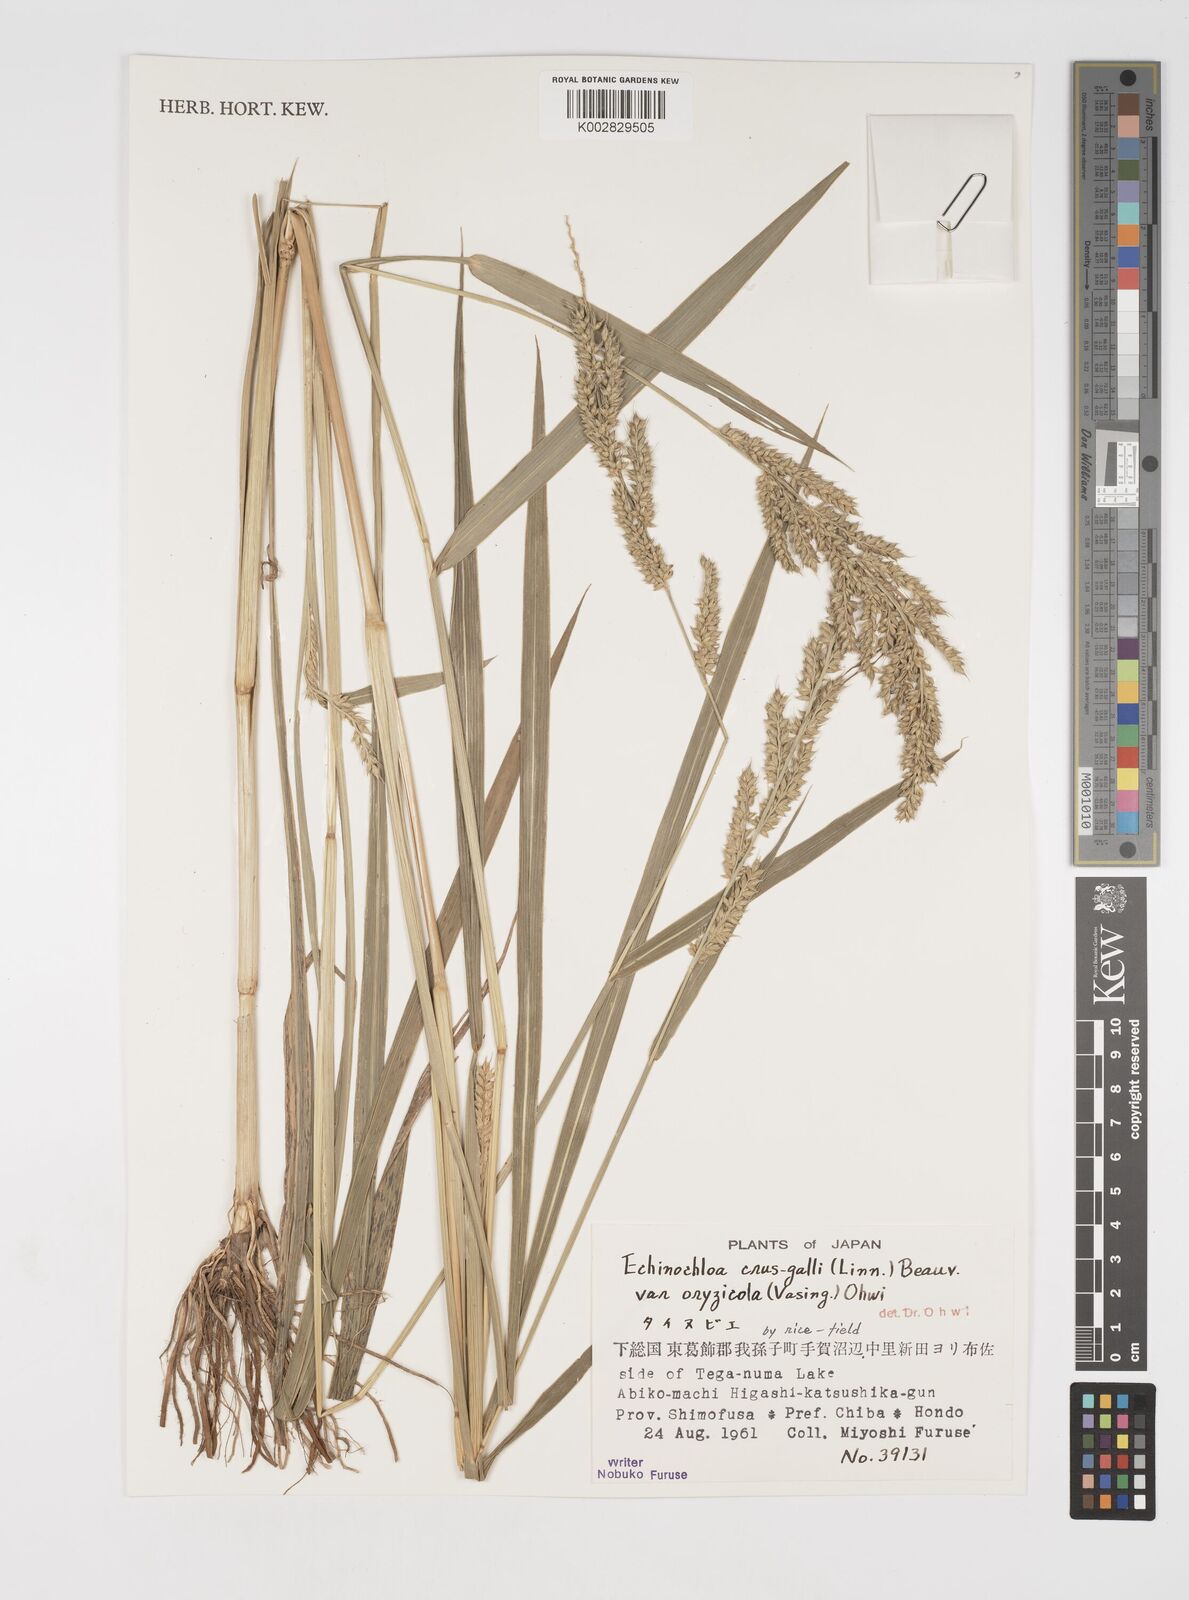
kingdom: Plantae
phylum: Tracheophyta
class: Liliopsida
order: Poales
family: Poaceae
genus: Echinochloa
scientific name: Echinochloa oryzoides
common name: Early water grass
